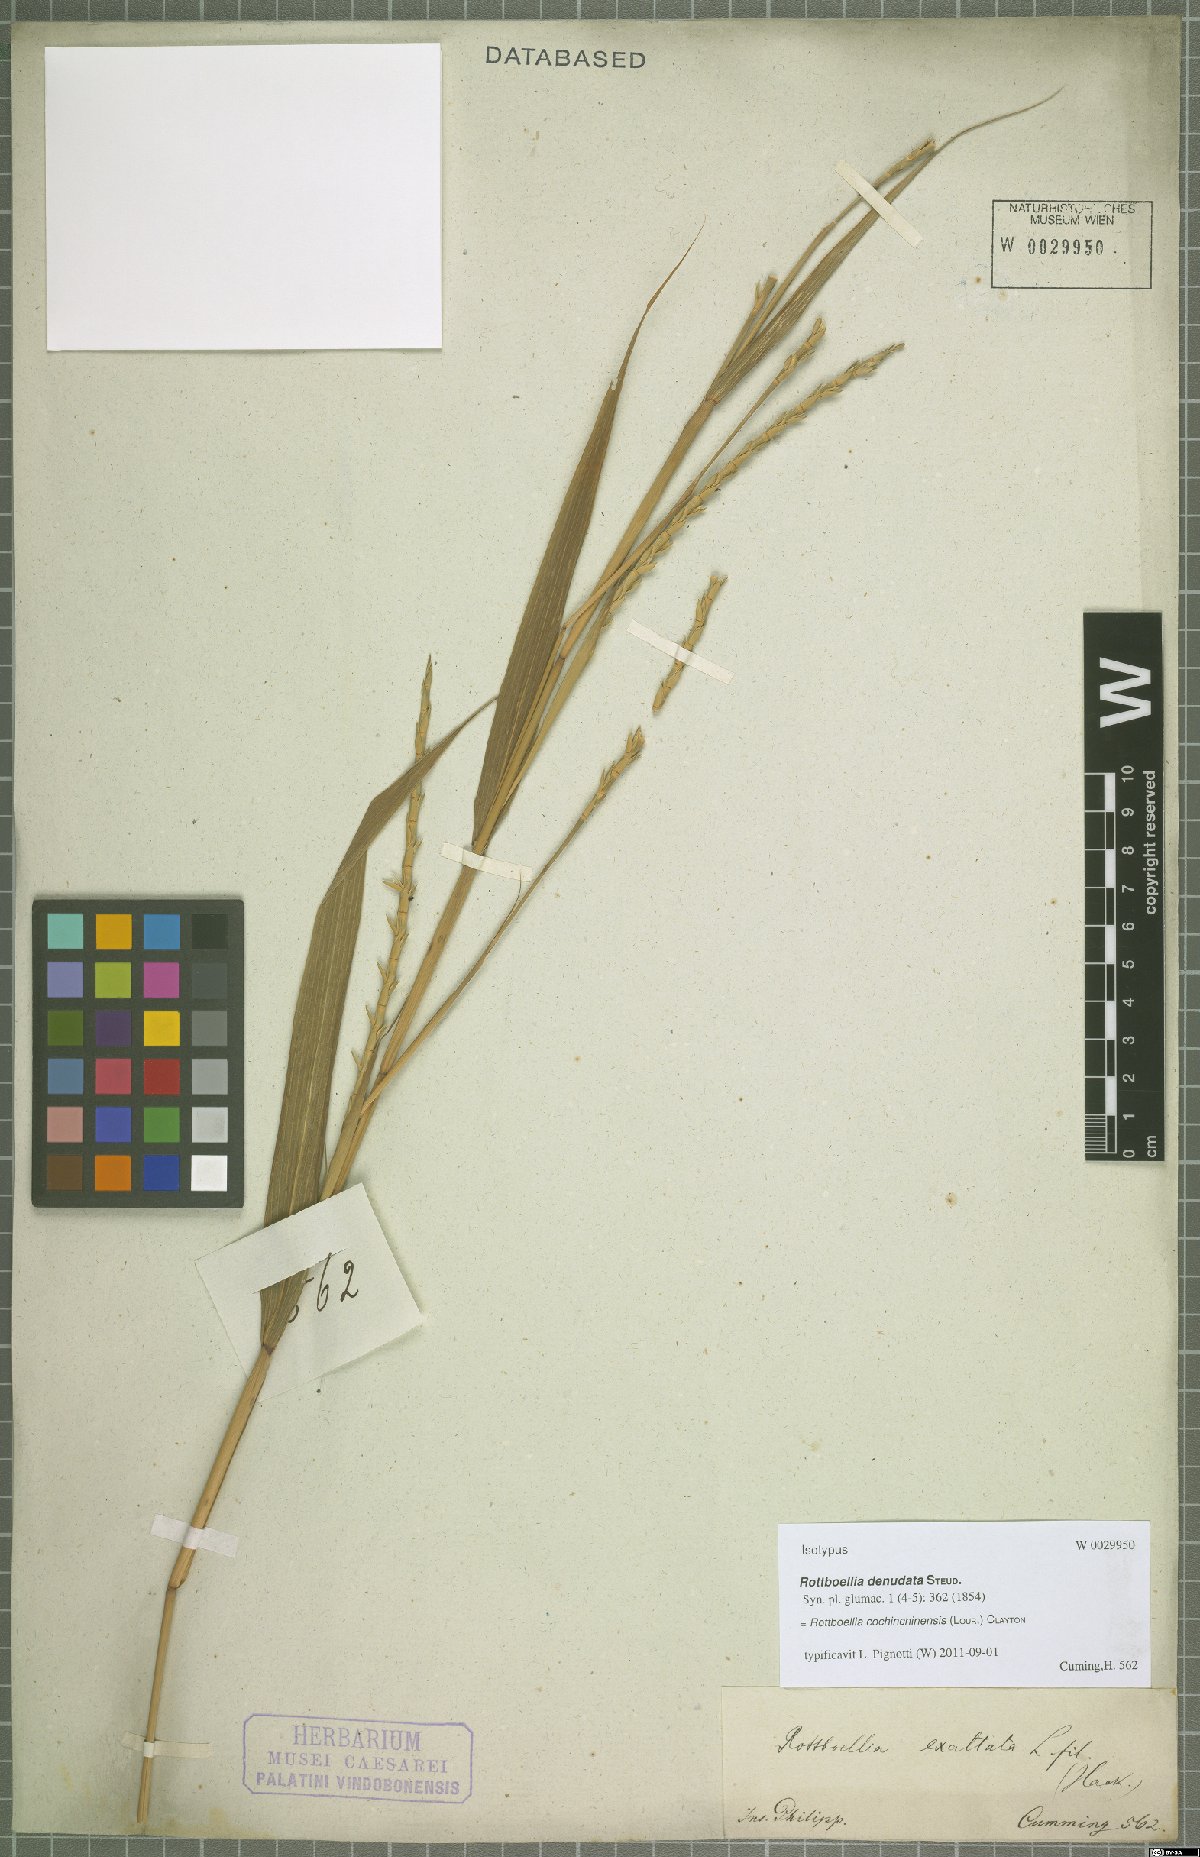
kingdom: Plantae
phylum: Tracheophyta
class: Liliopsida
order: Poales
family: Poaceae
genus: Rottboellia
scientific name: Rottboellia cochinchinensis
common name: Itchgrass
